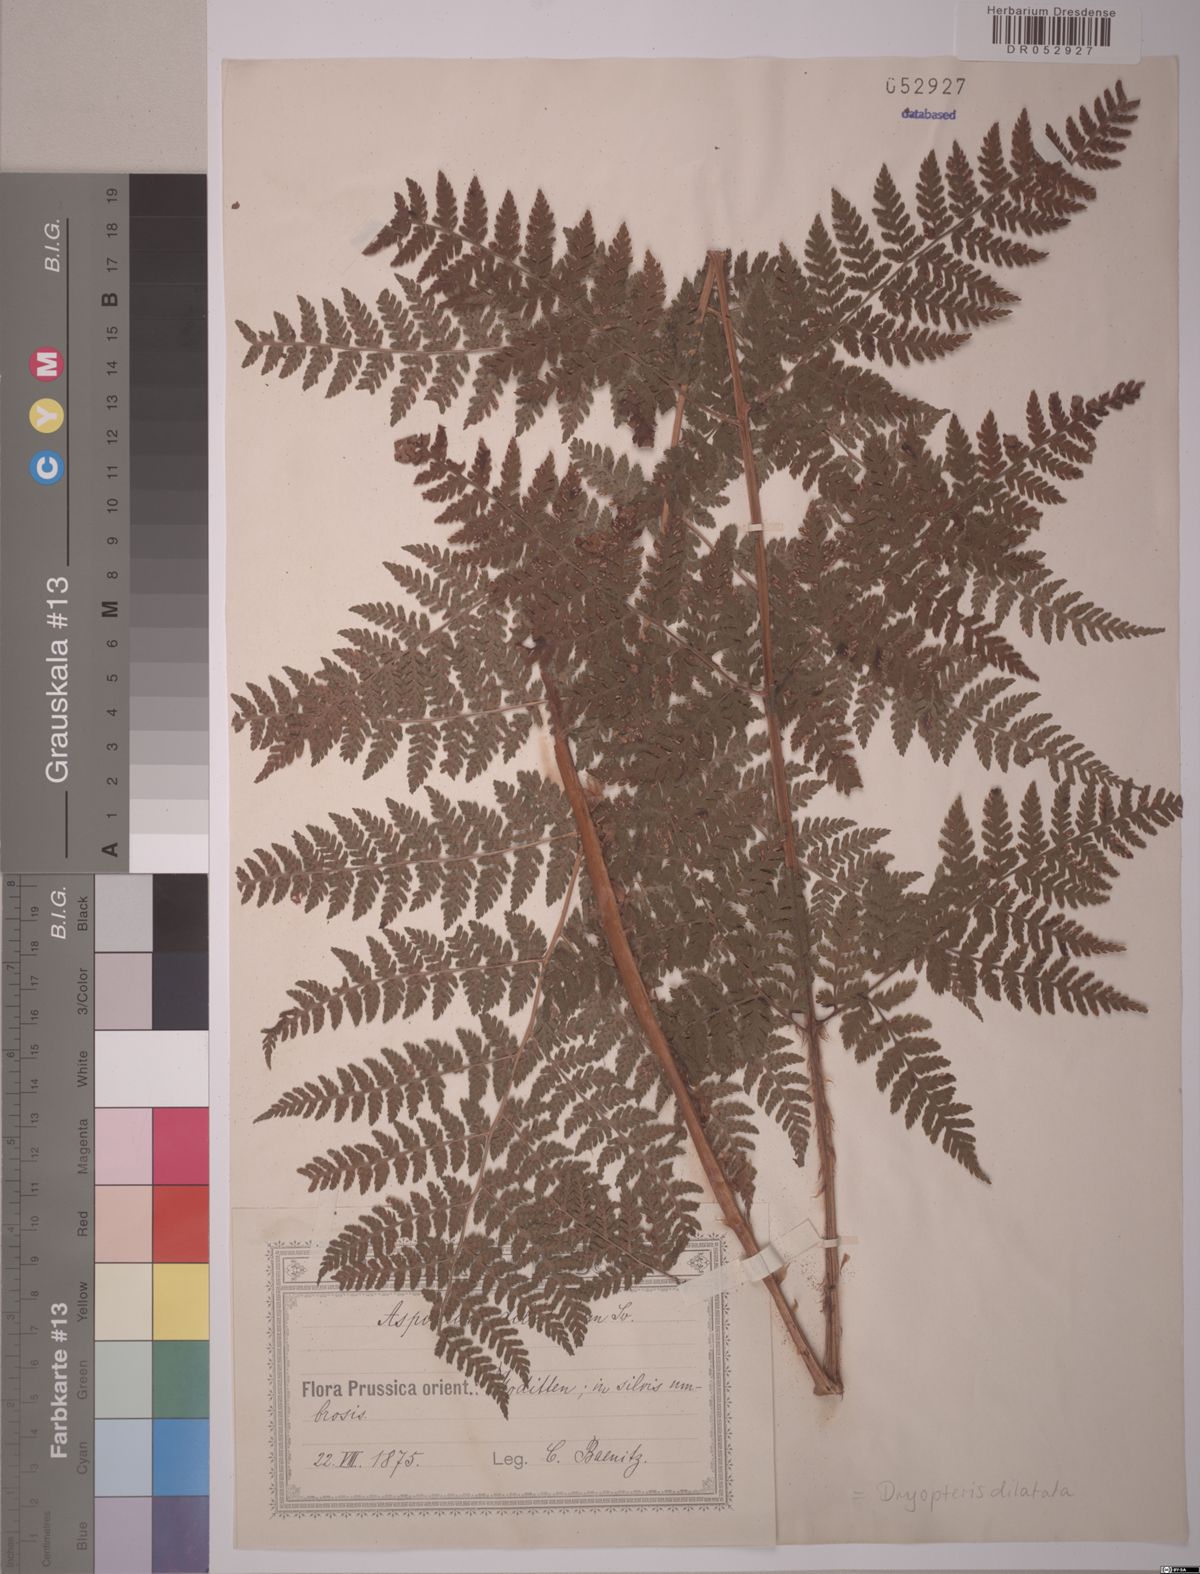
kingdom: Plantae
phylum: Tracheophyta
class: Polypodiopsida
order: Polypodiales
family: Dryopteridaceae
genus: Dryopteris
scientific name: Dryopteris dilatata
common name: Broad buckler-fern
